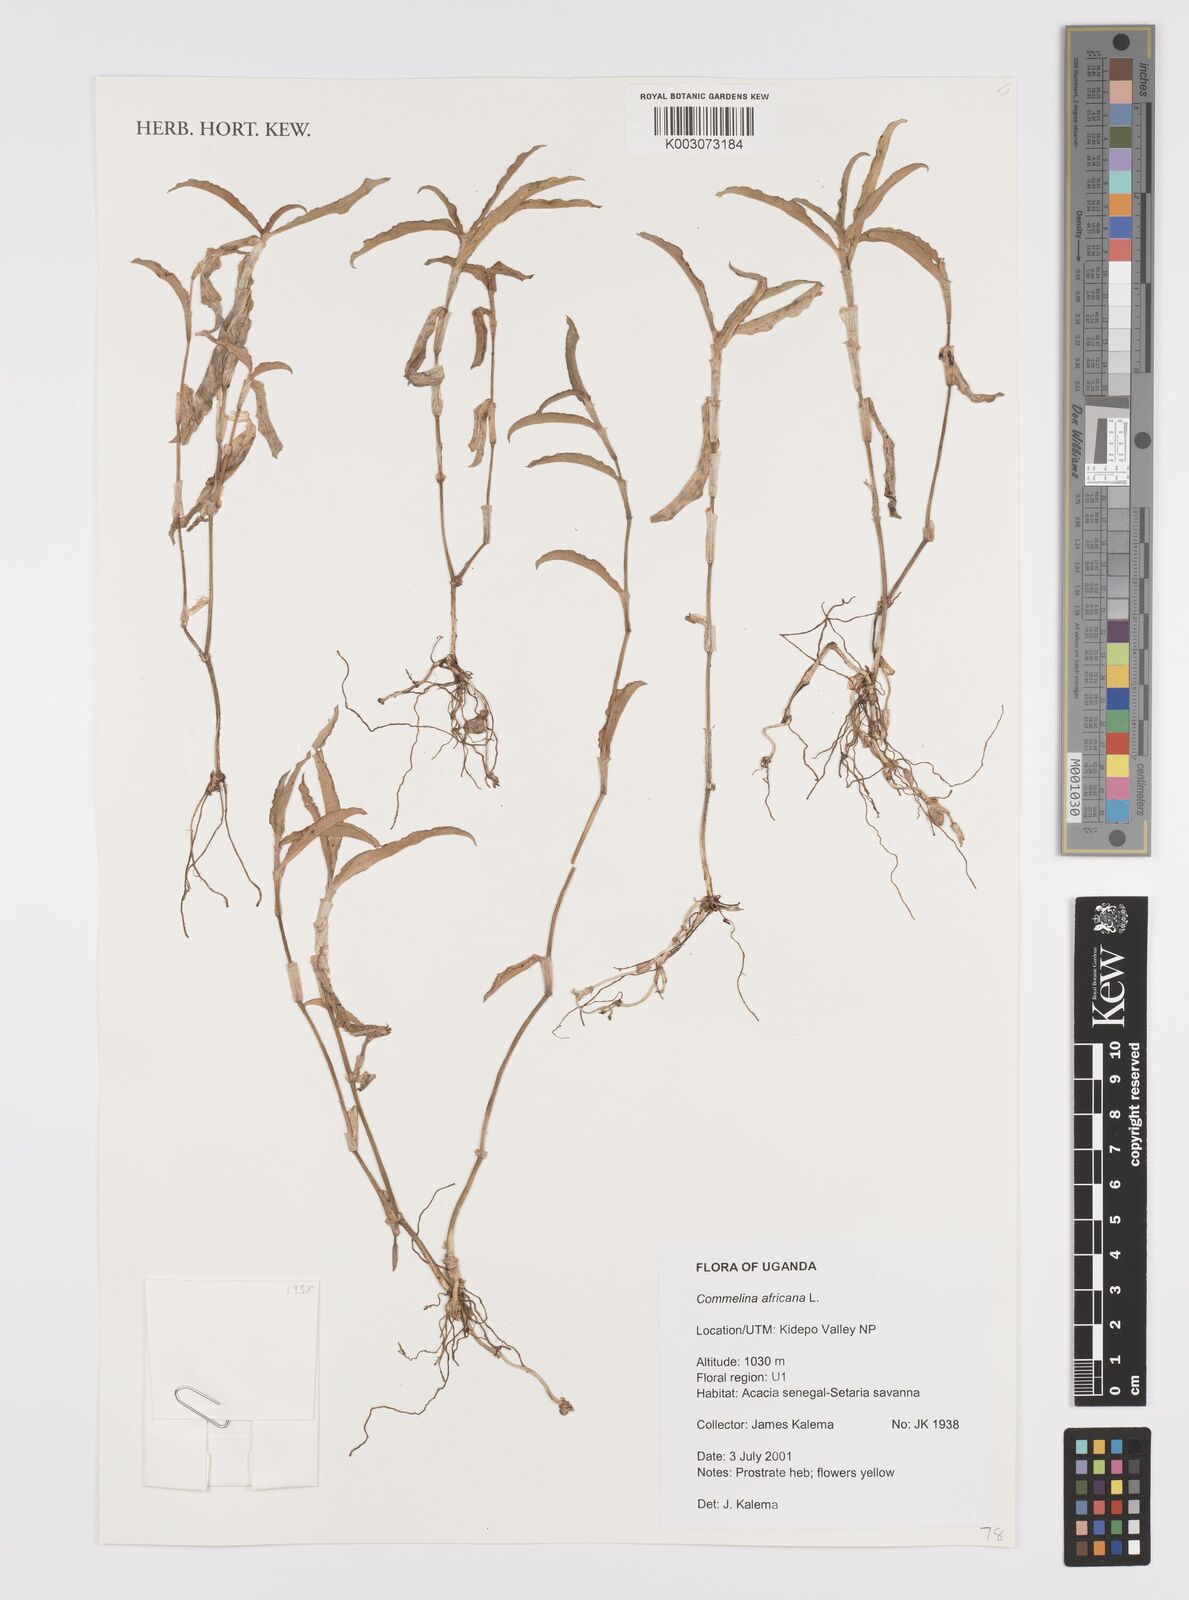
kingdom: Plantae
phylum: Tracheophyta
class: Liliopsida
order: Commelinales
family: Commelinaceae
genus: Commelina
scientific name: Commelina africana
